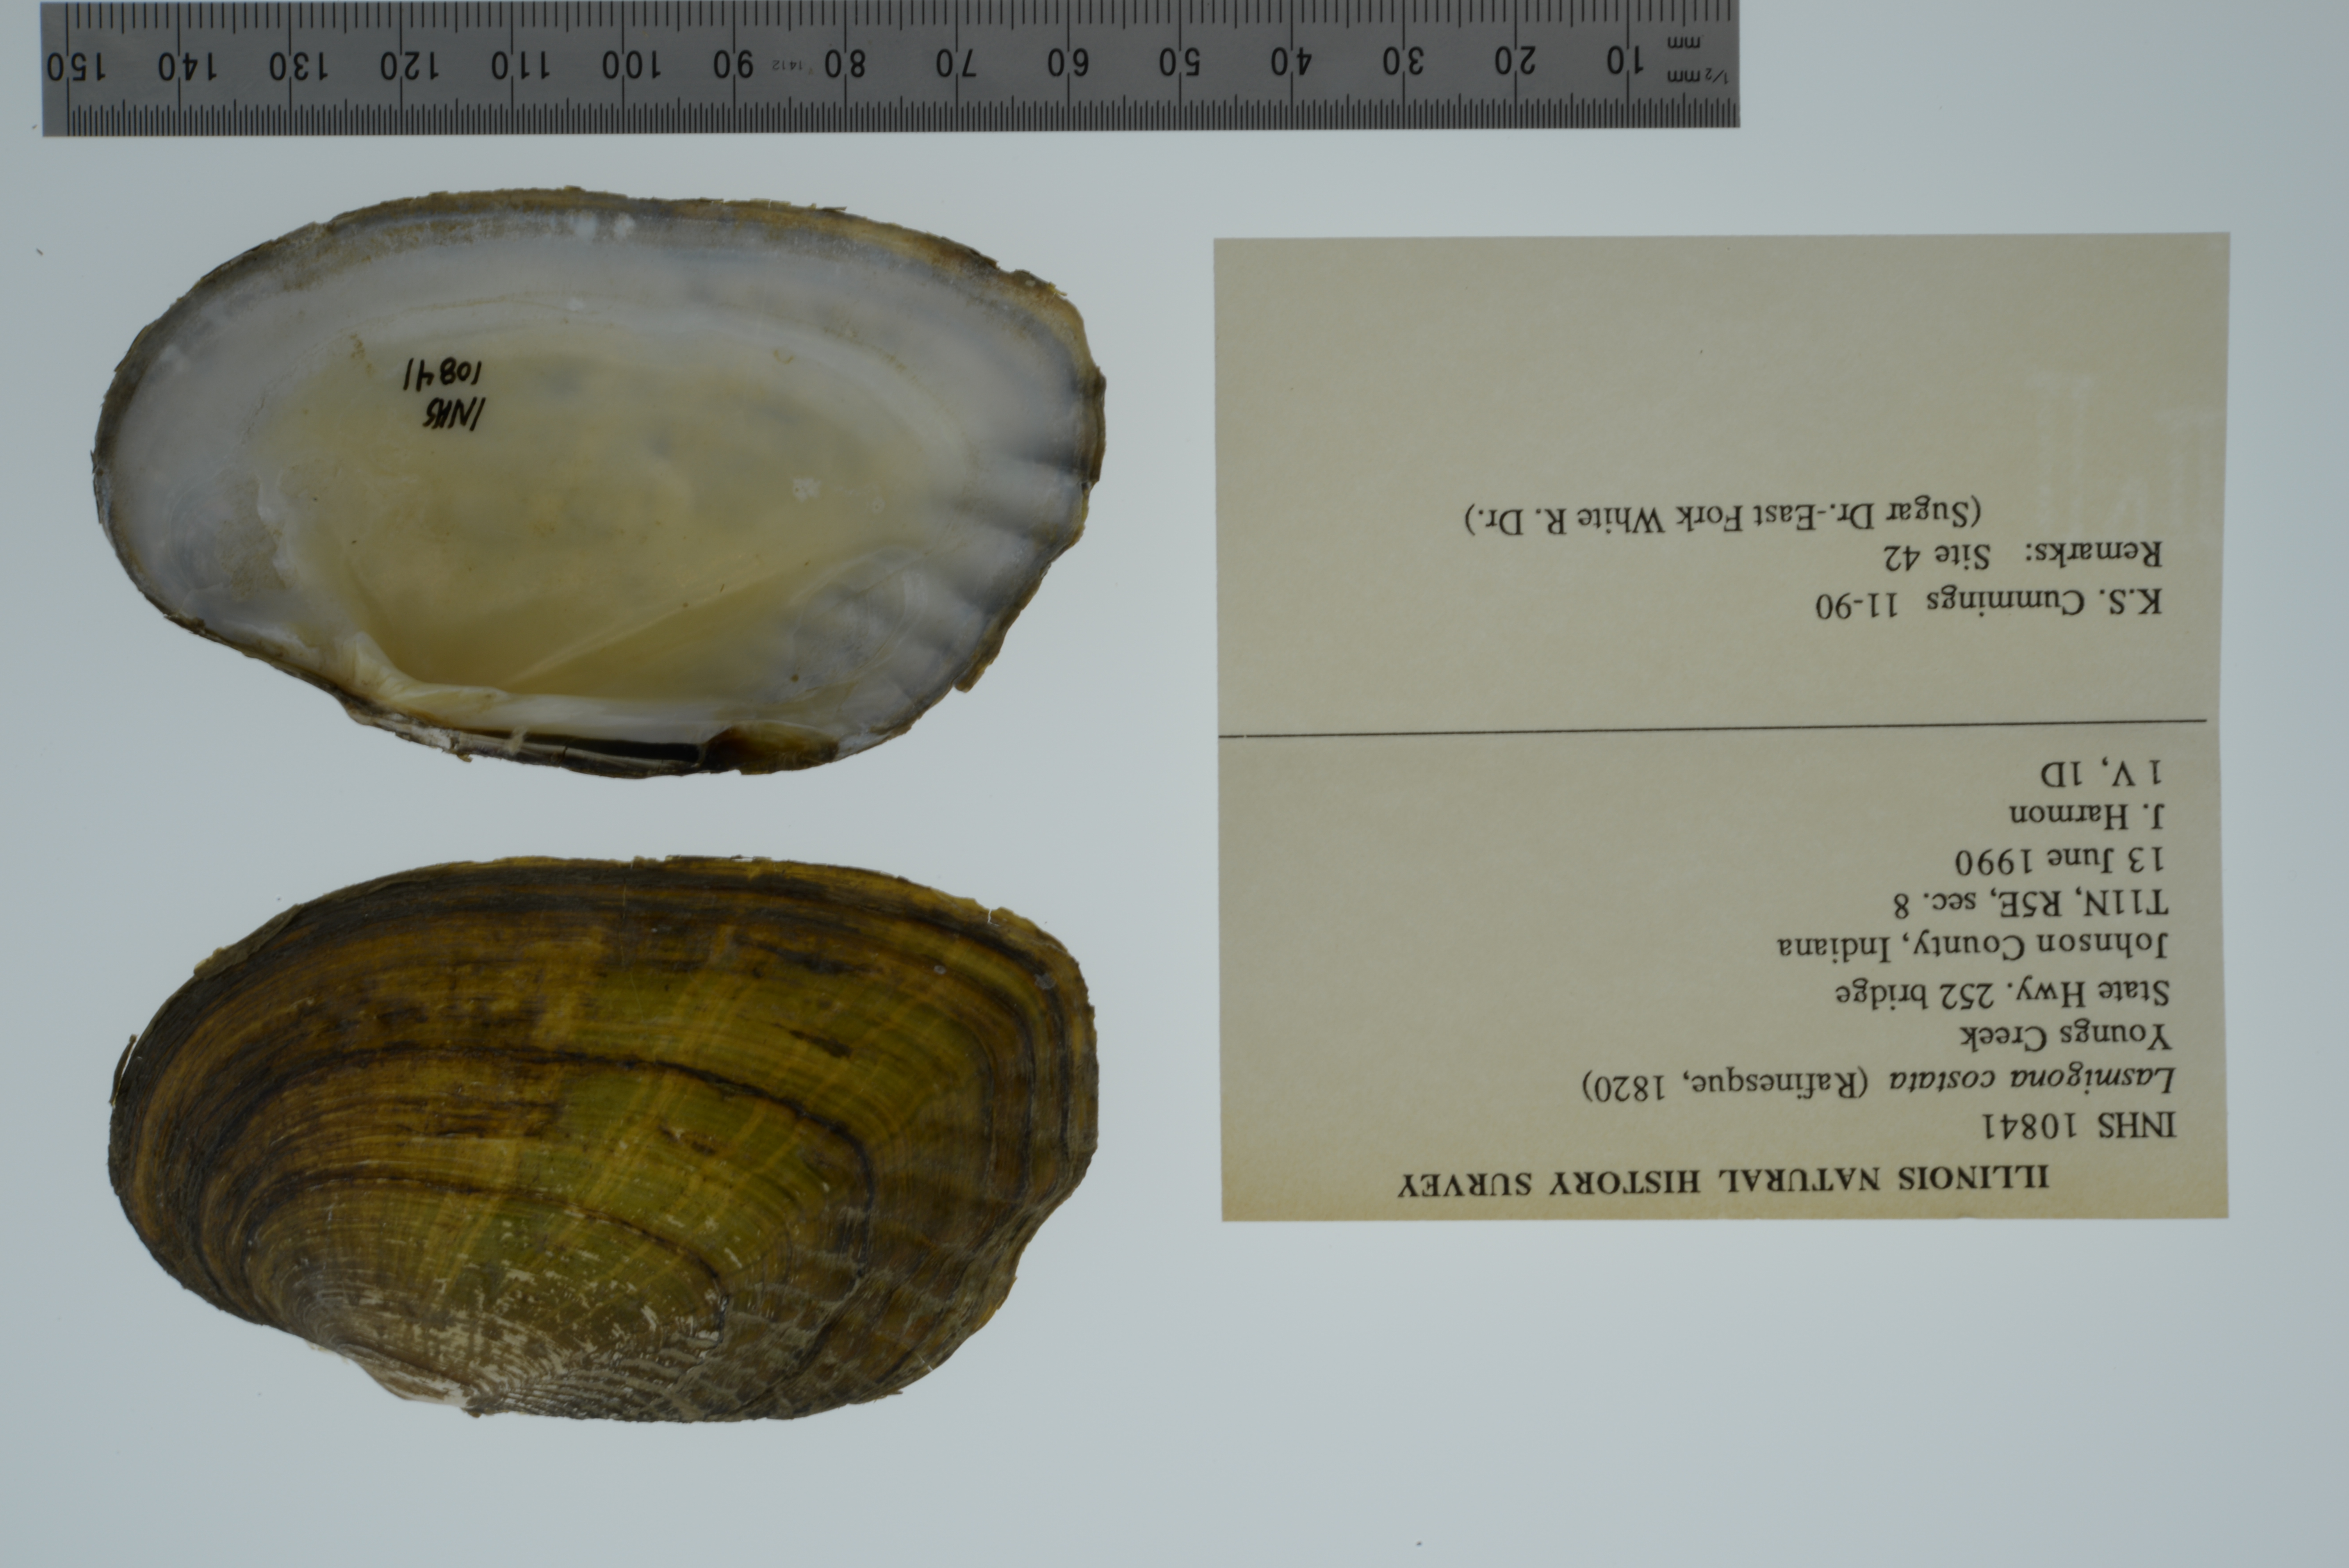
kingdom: Animalia
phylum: Mollusca
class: Bivalvia
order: Unionida
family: Unionidae
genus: Lasmigona
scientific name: Lasmigona costata
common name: Flutedshell
